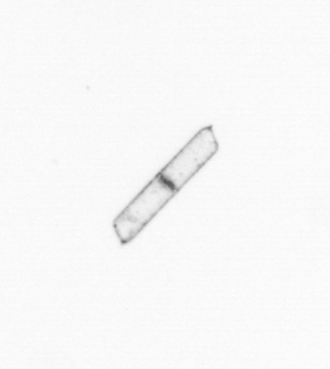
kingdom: Chromista
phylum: Ochrophyta
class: Bacillariophyceae
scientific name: Bacillariophyceae
